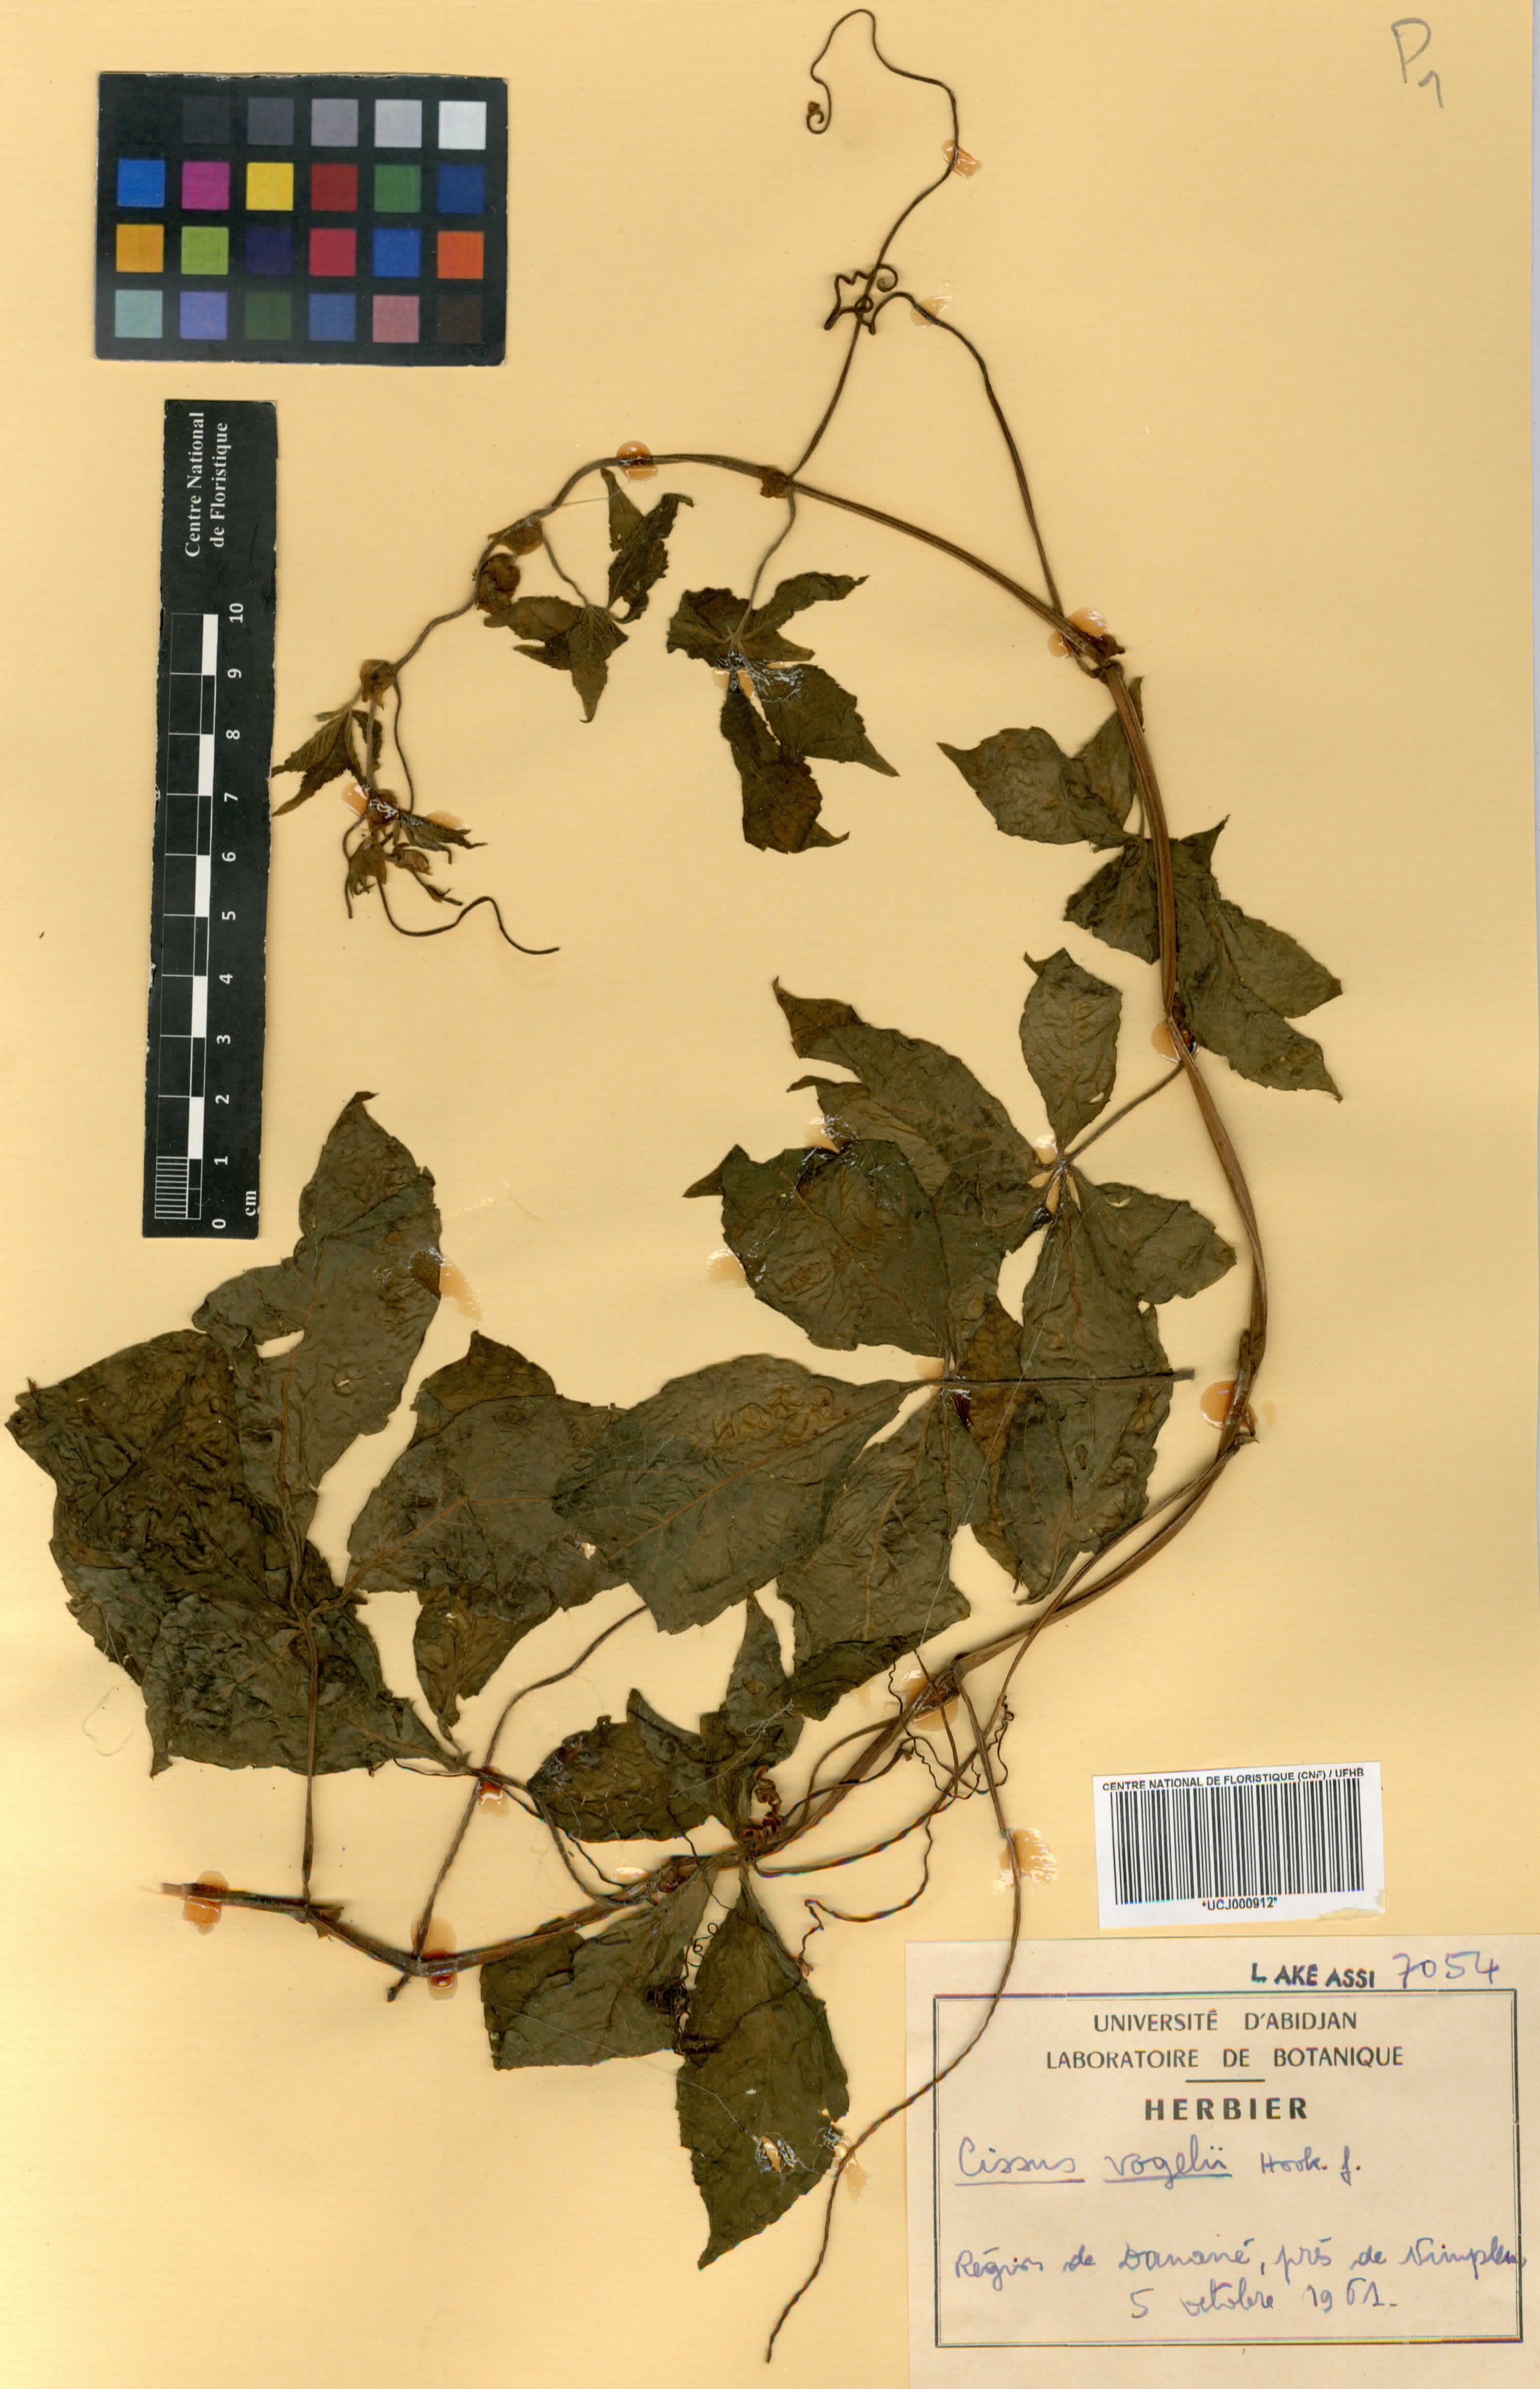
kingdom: Plantae
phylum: Tracheophyta
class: Magnoliopsida
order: Vitales
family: Vitaceae
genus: Cyphostemma
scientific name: Cyphostemma vogelii
